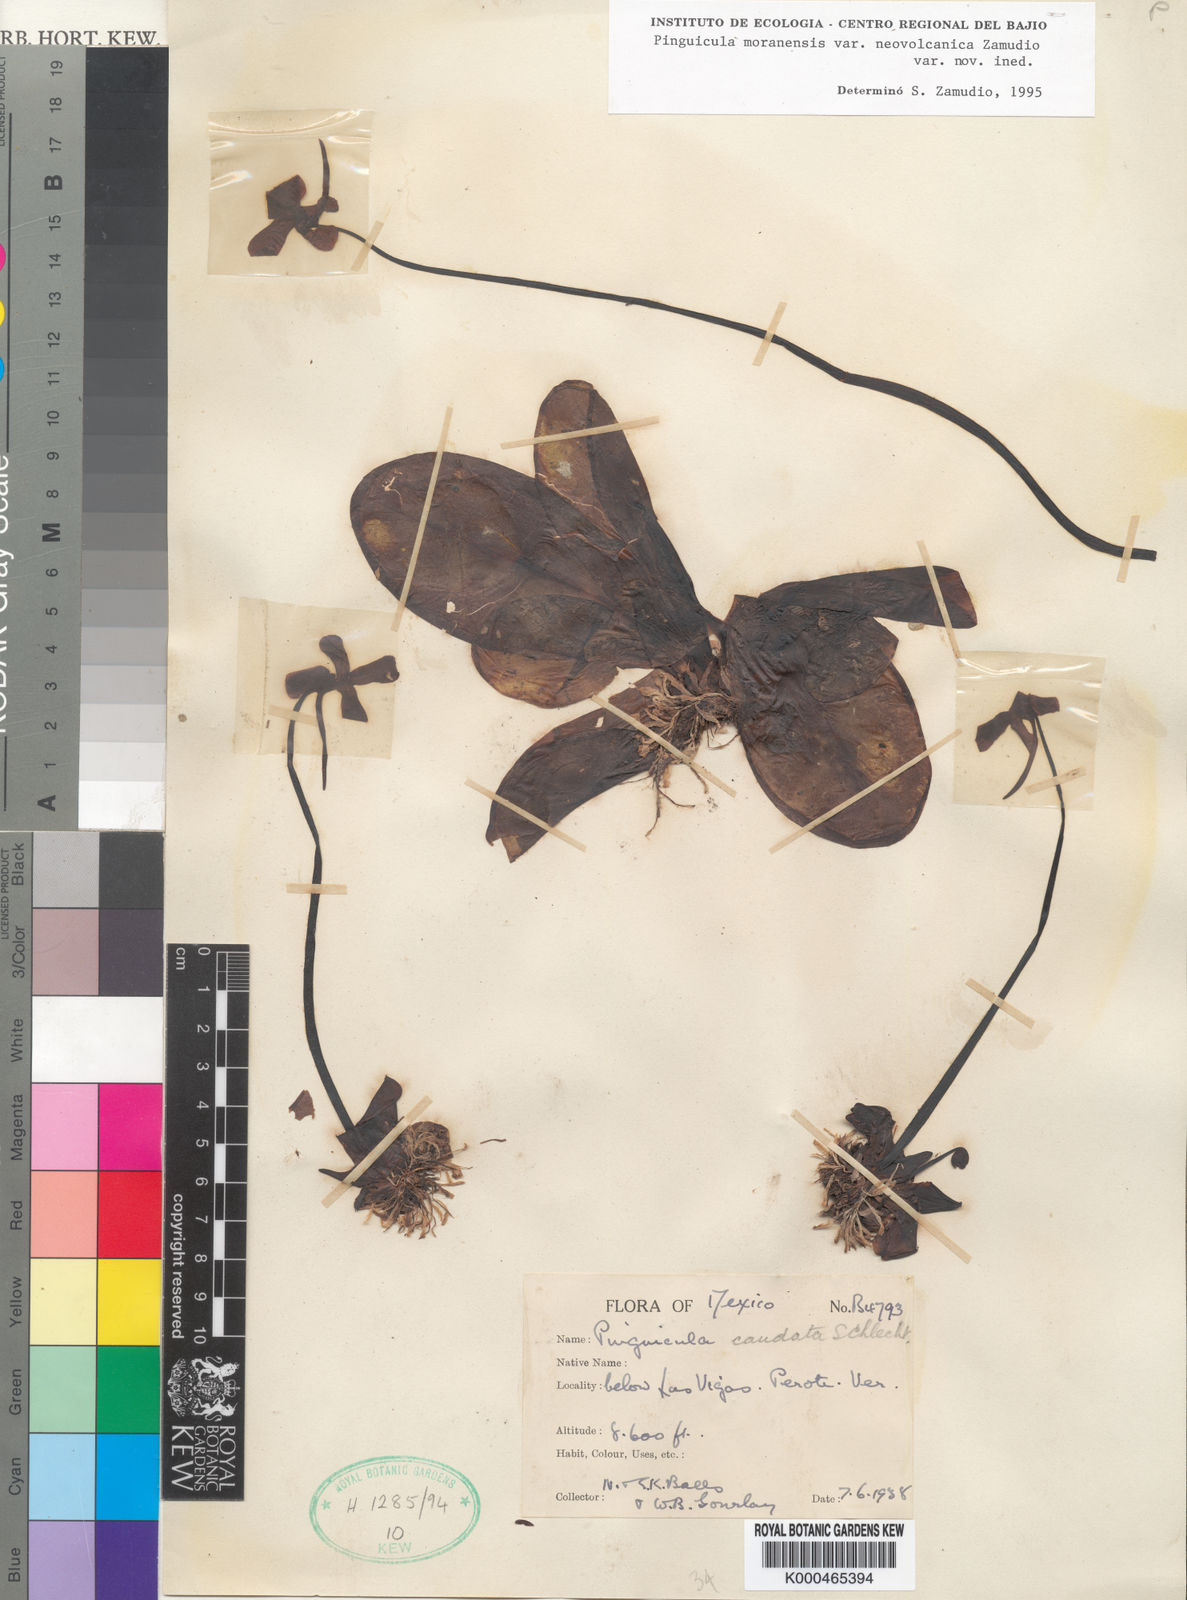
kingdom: Plantae
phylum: Tracheophyta
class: Magnoliopsida
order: Lamiales
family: Lentibulariaceae
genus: Pinguicula
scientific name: Pinguicula moranensis
